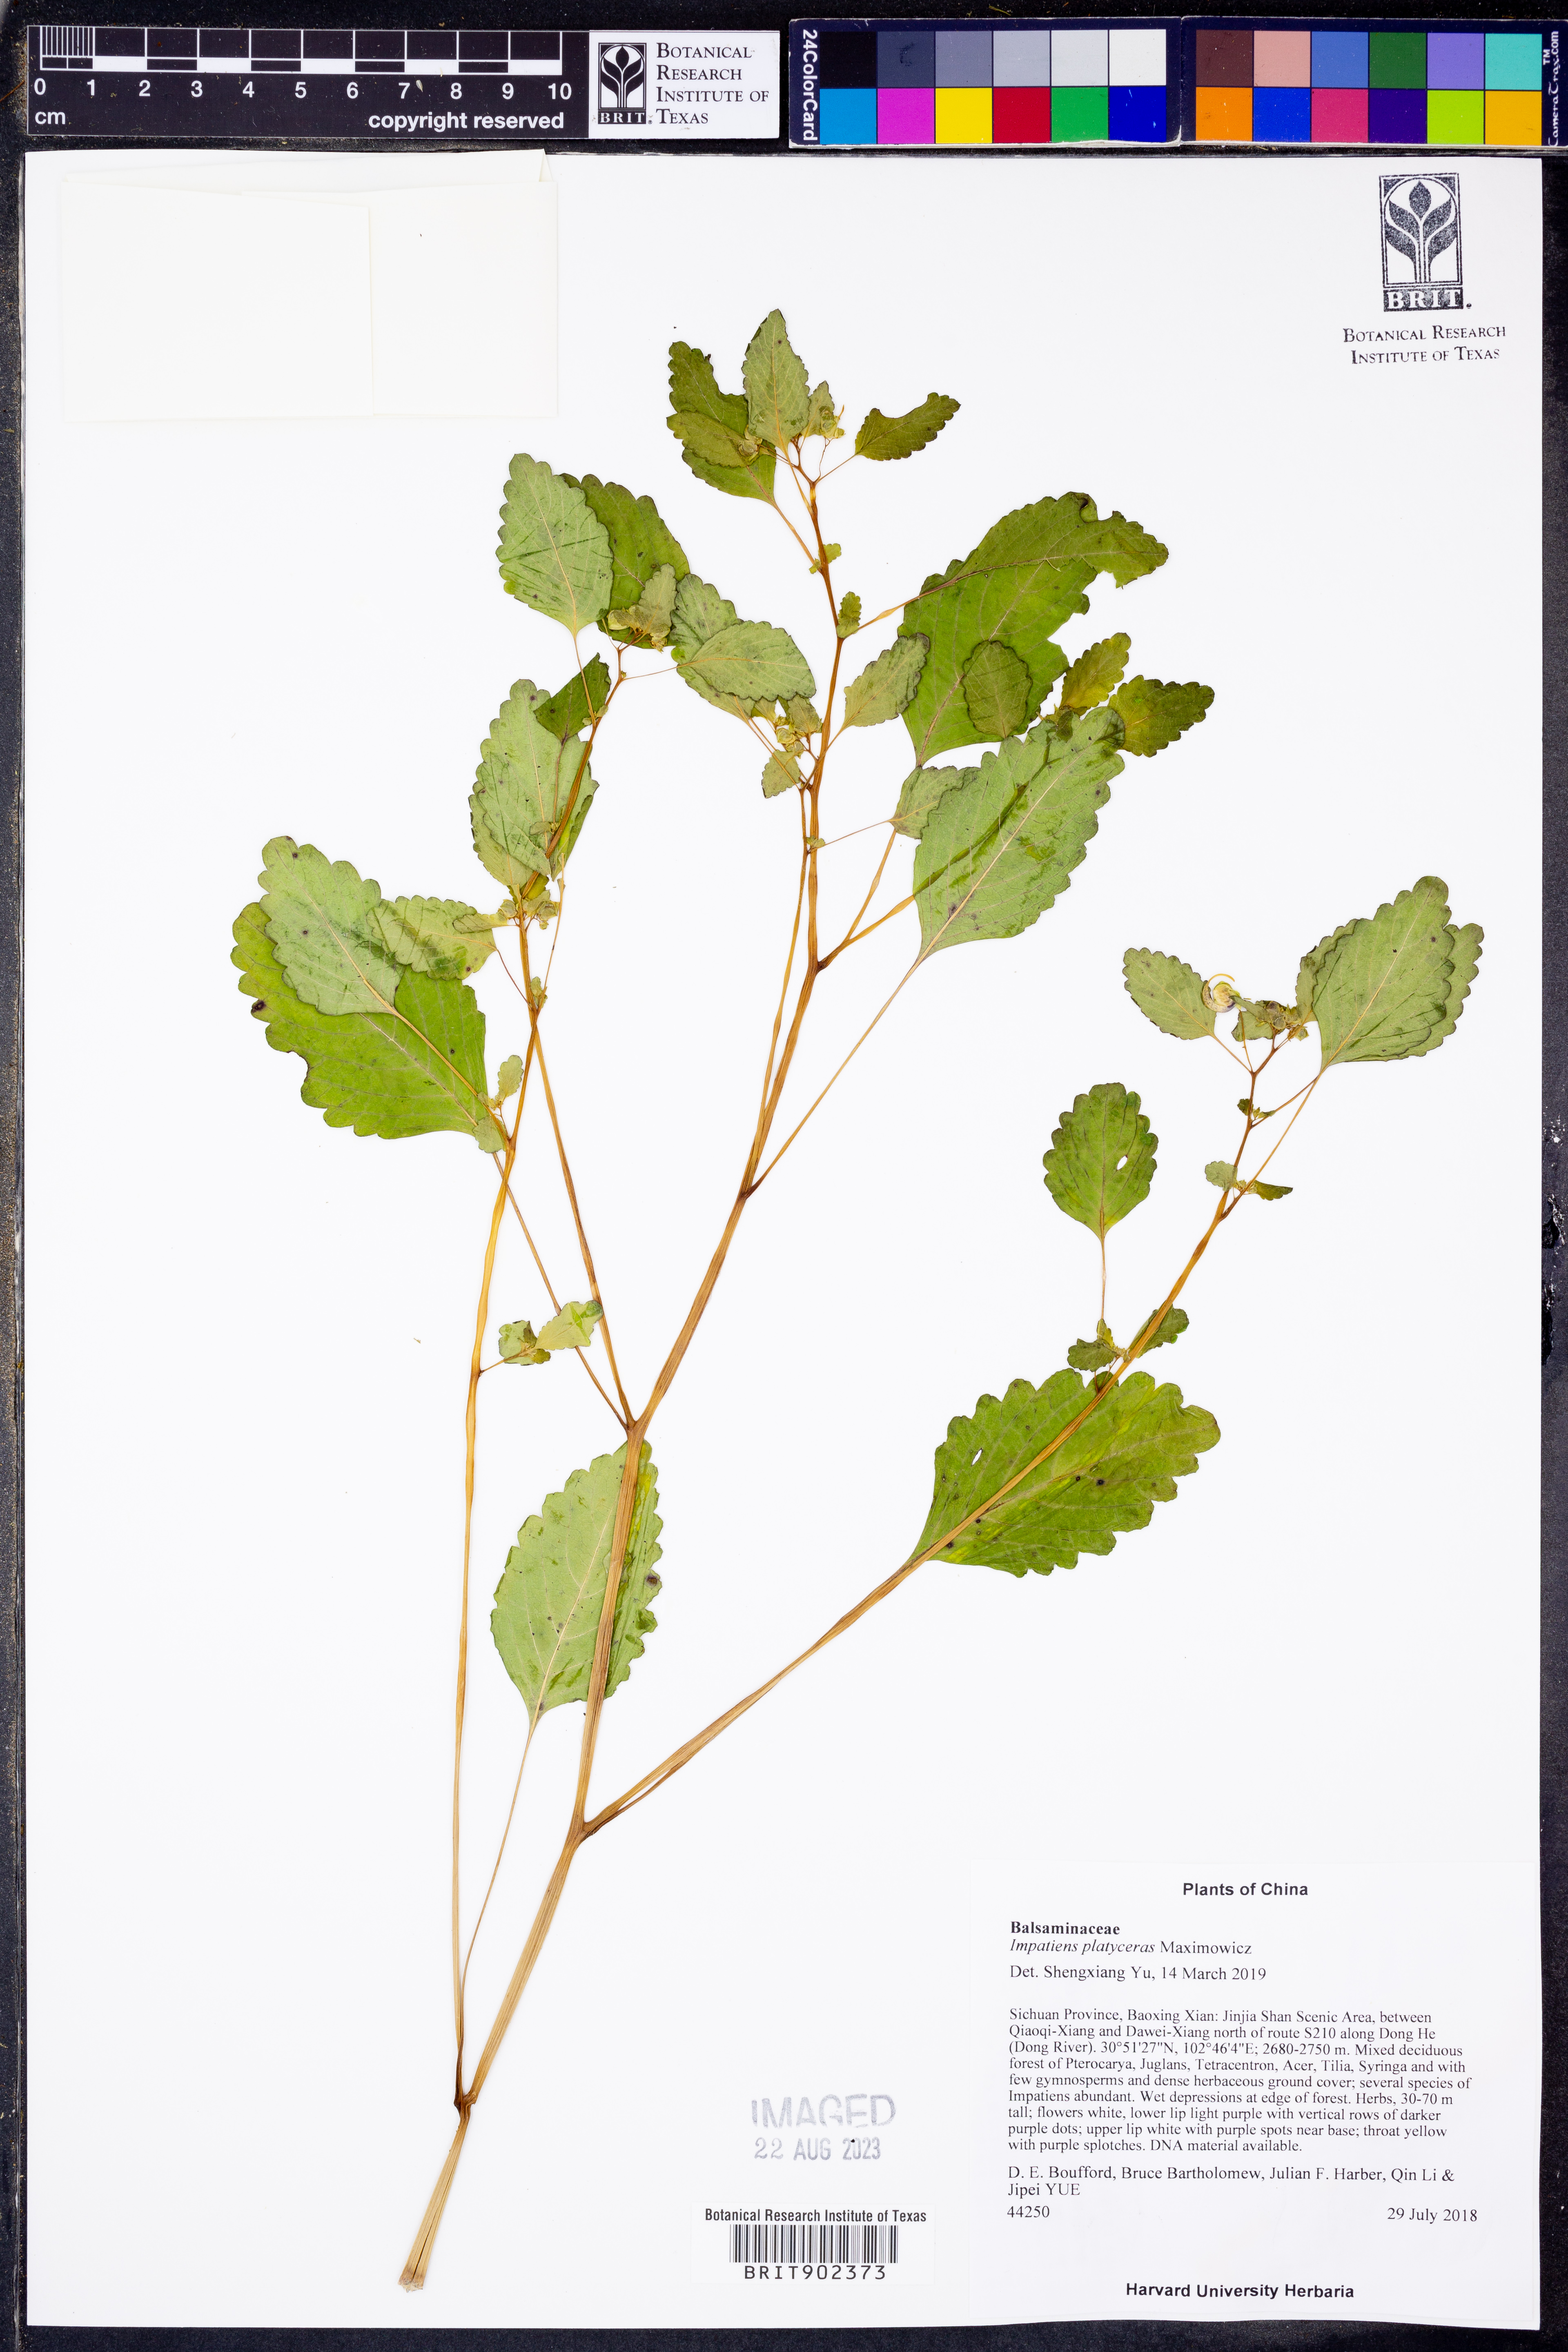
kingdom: Plantae
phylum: Tracheophyta
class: Magnoliopsida
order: Ericales
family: Balsaminaceae
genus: Impatiens
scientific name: Impatiens
